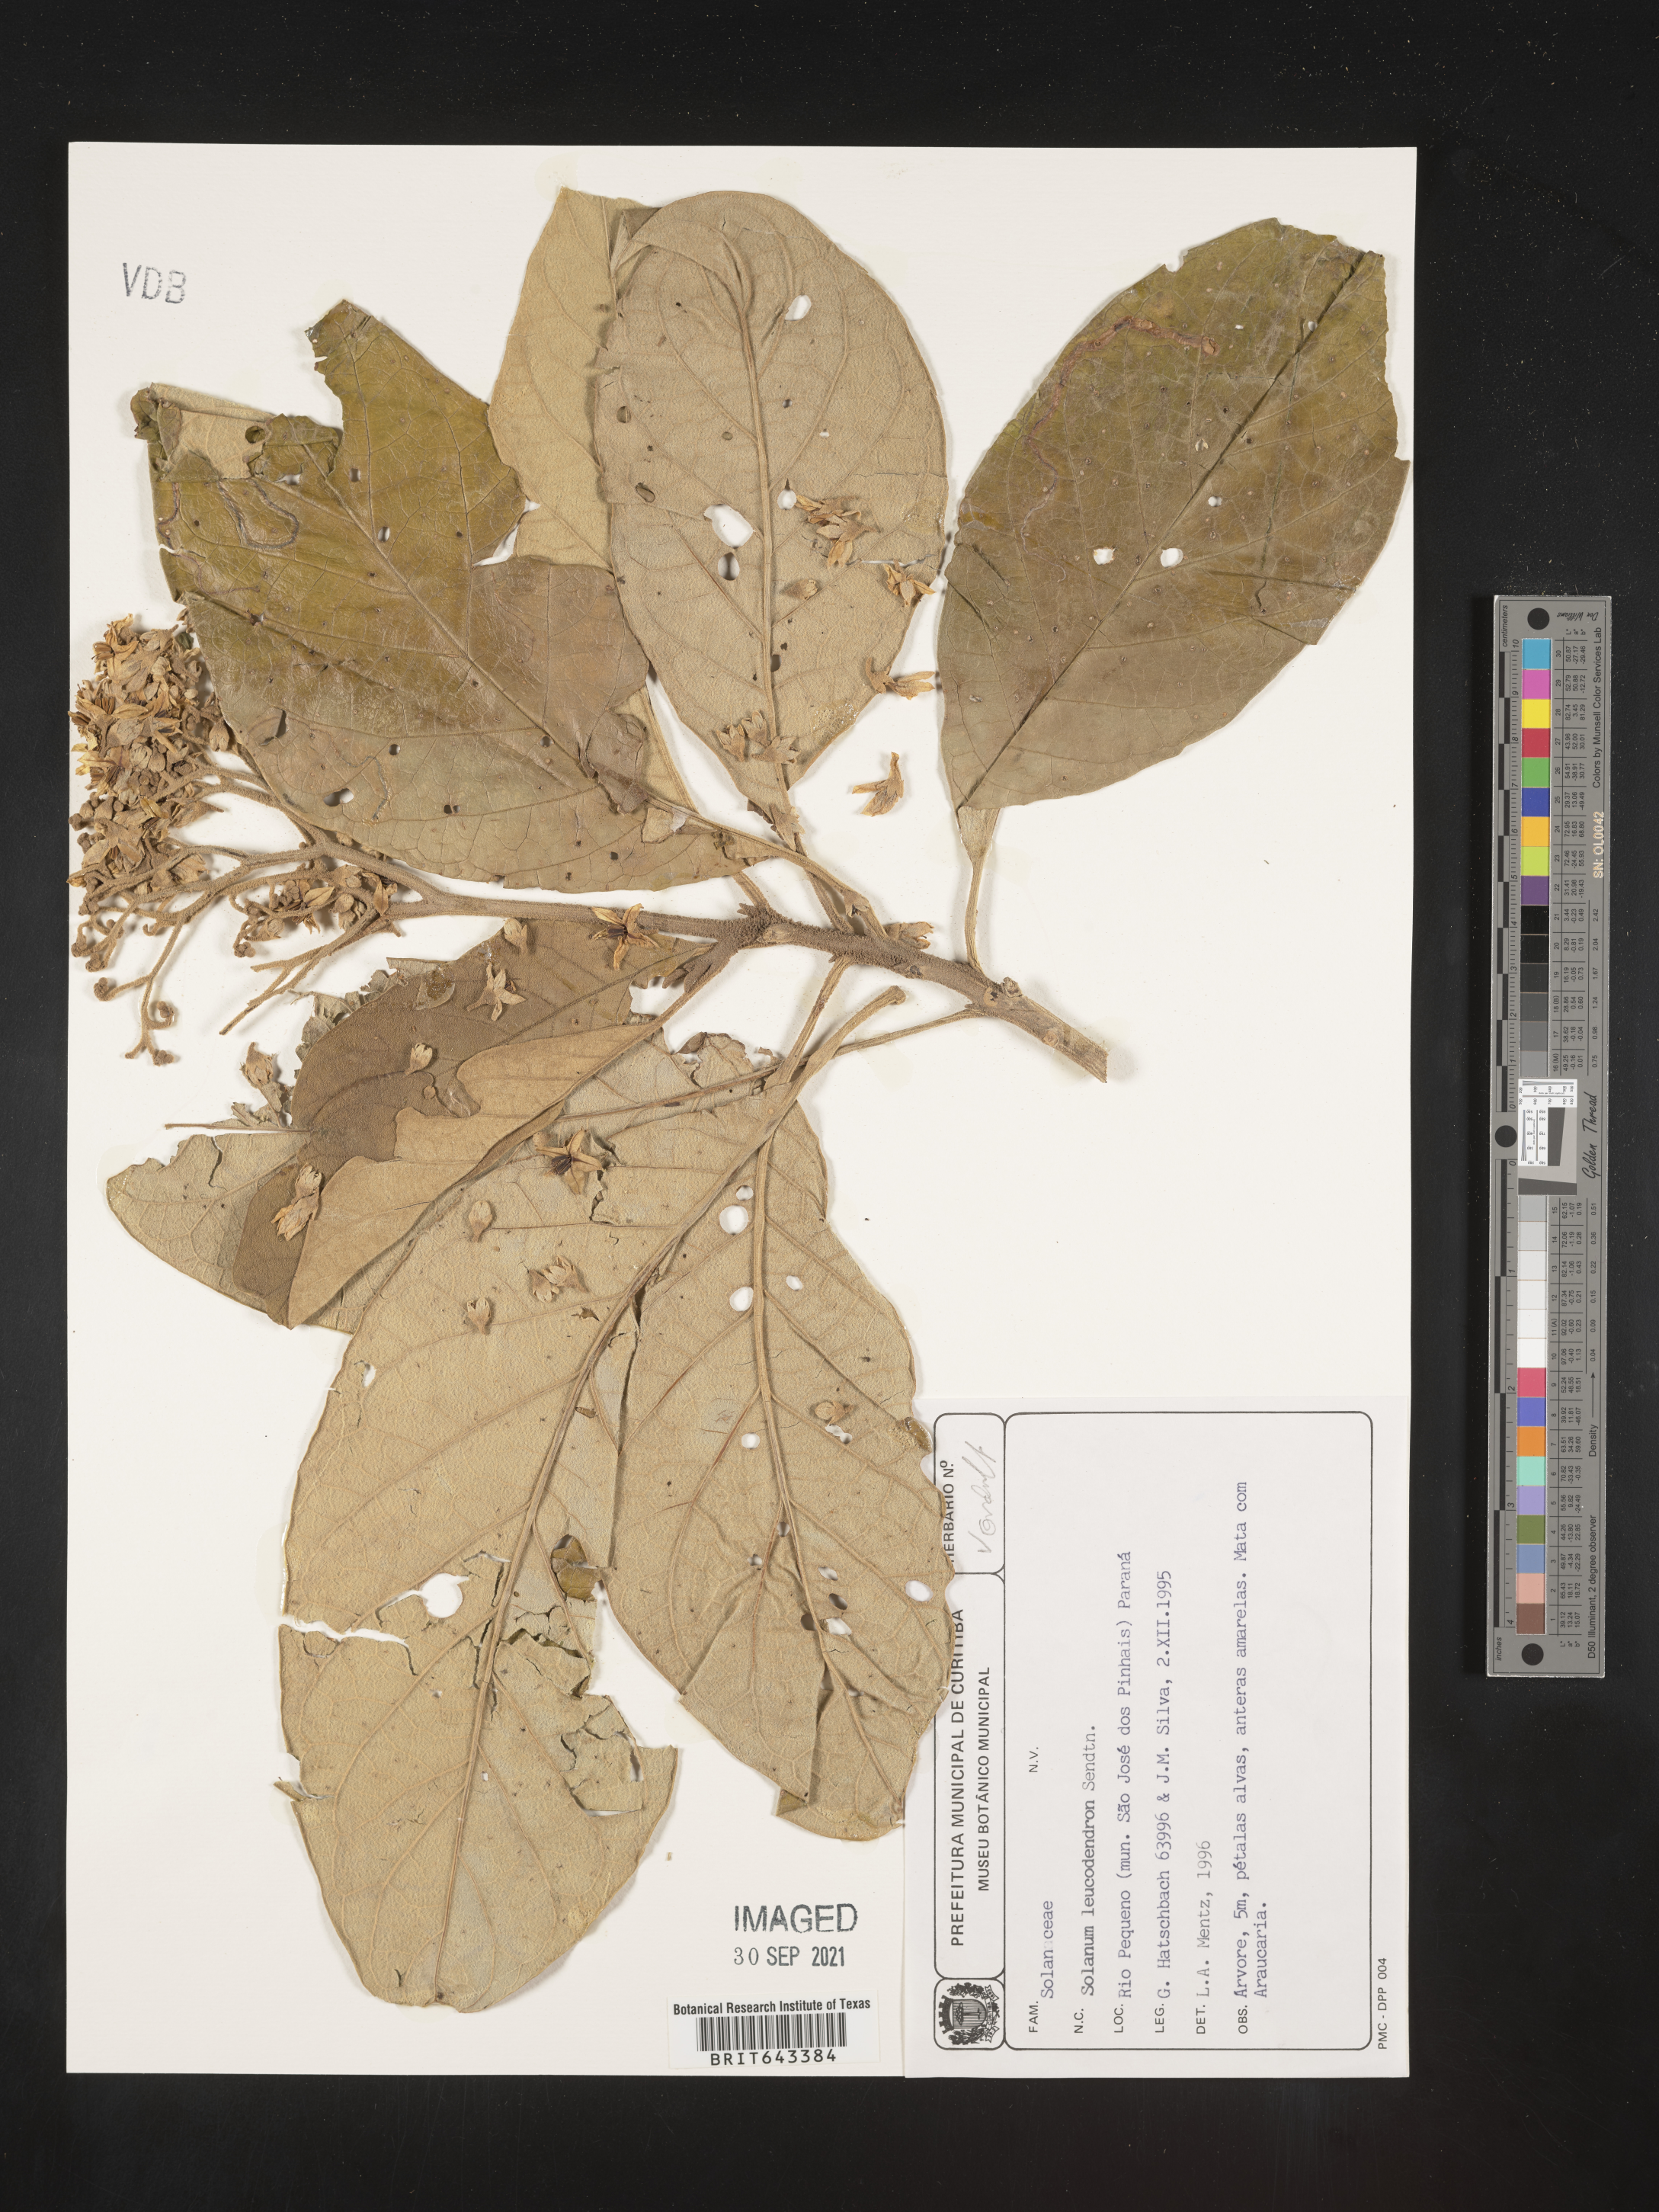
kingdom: Plantae
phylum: Tracheophyta
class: Magnoliopsida
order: Solanales
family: Solanaceae
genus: Solanum
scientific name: Solanum
